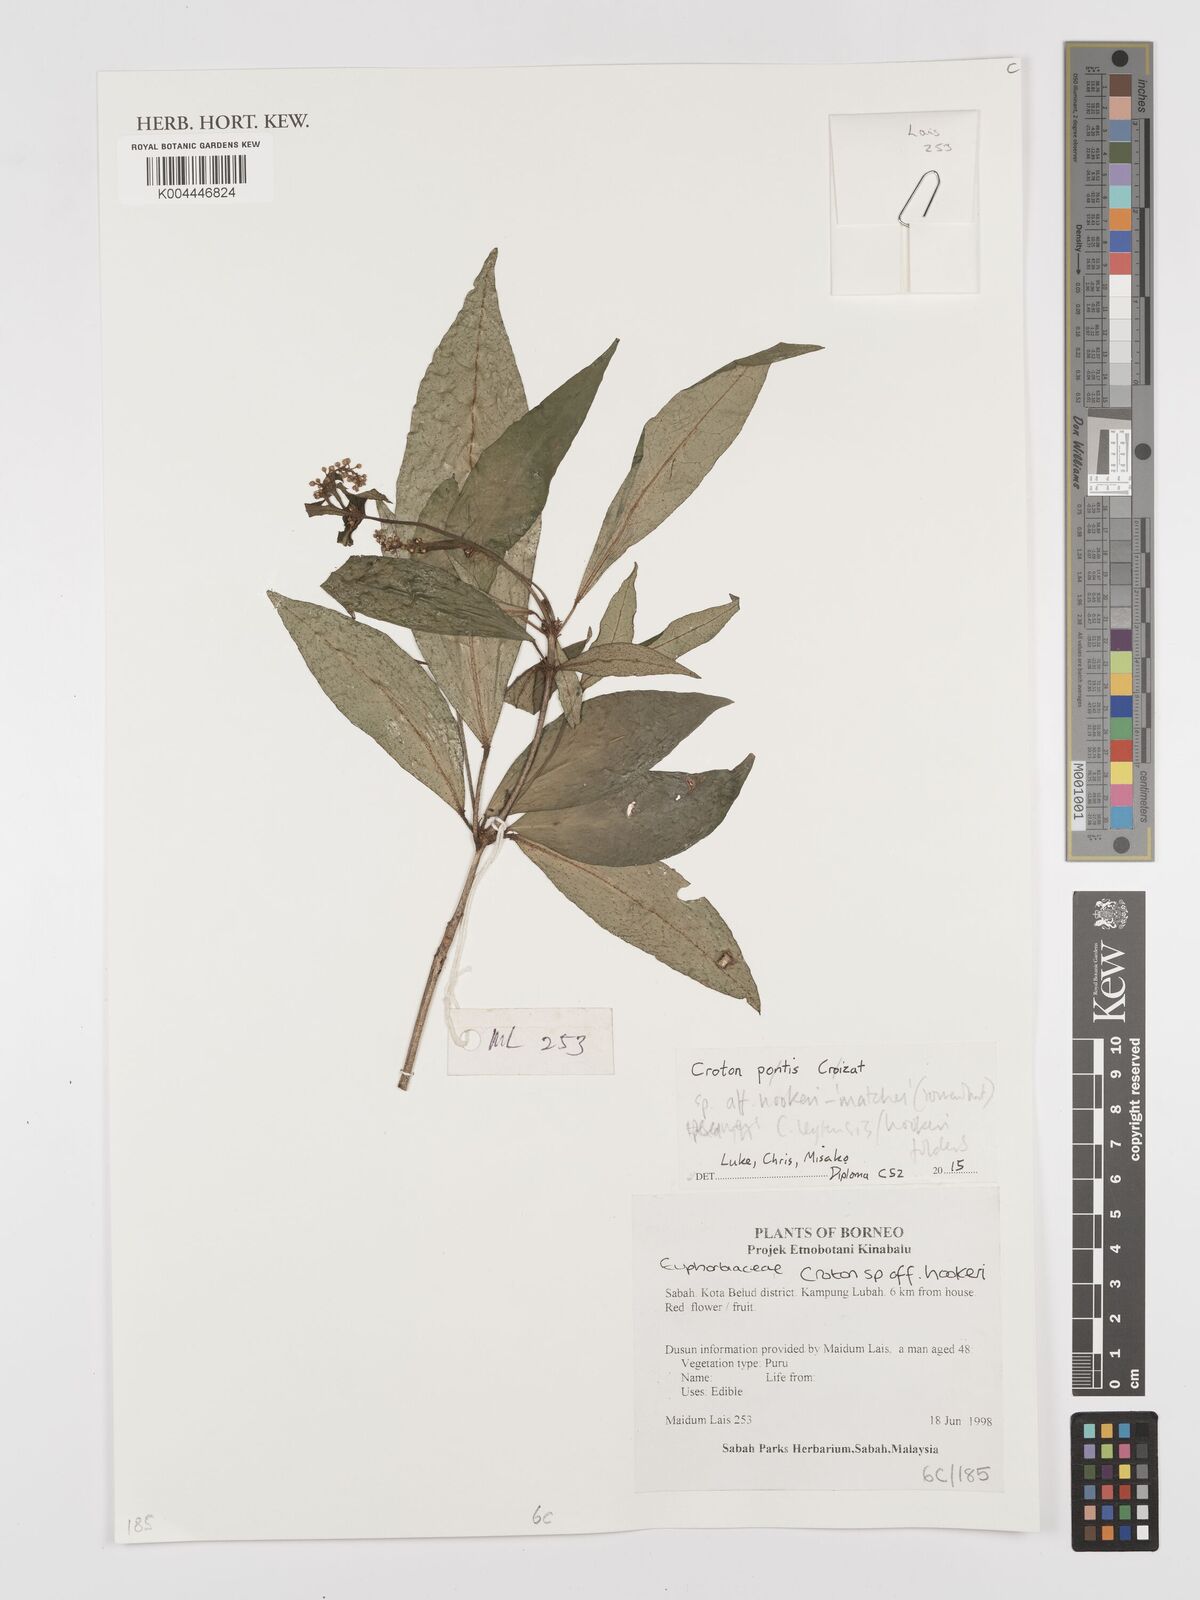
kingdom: Plantae
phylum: Tracheophyta
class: Magnoliopsida
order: Malpighiales
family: Euphorbiaceae
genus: Croton
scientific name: Croton
